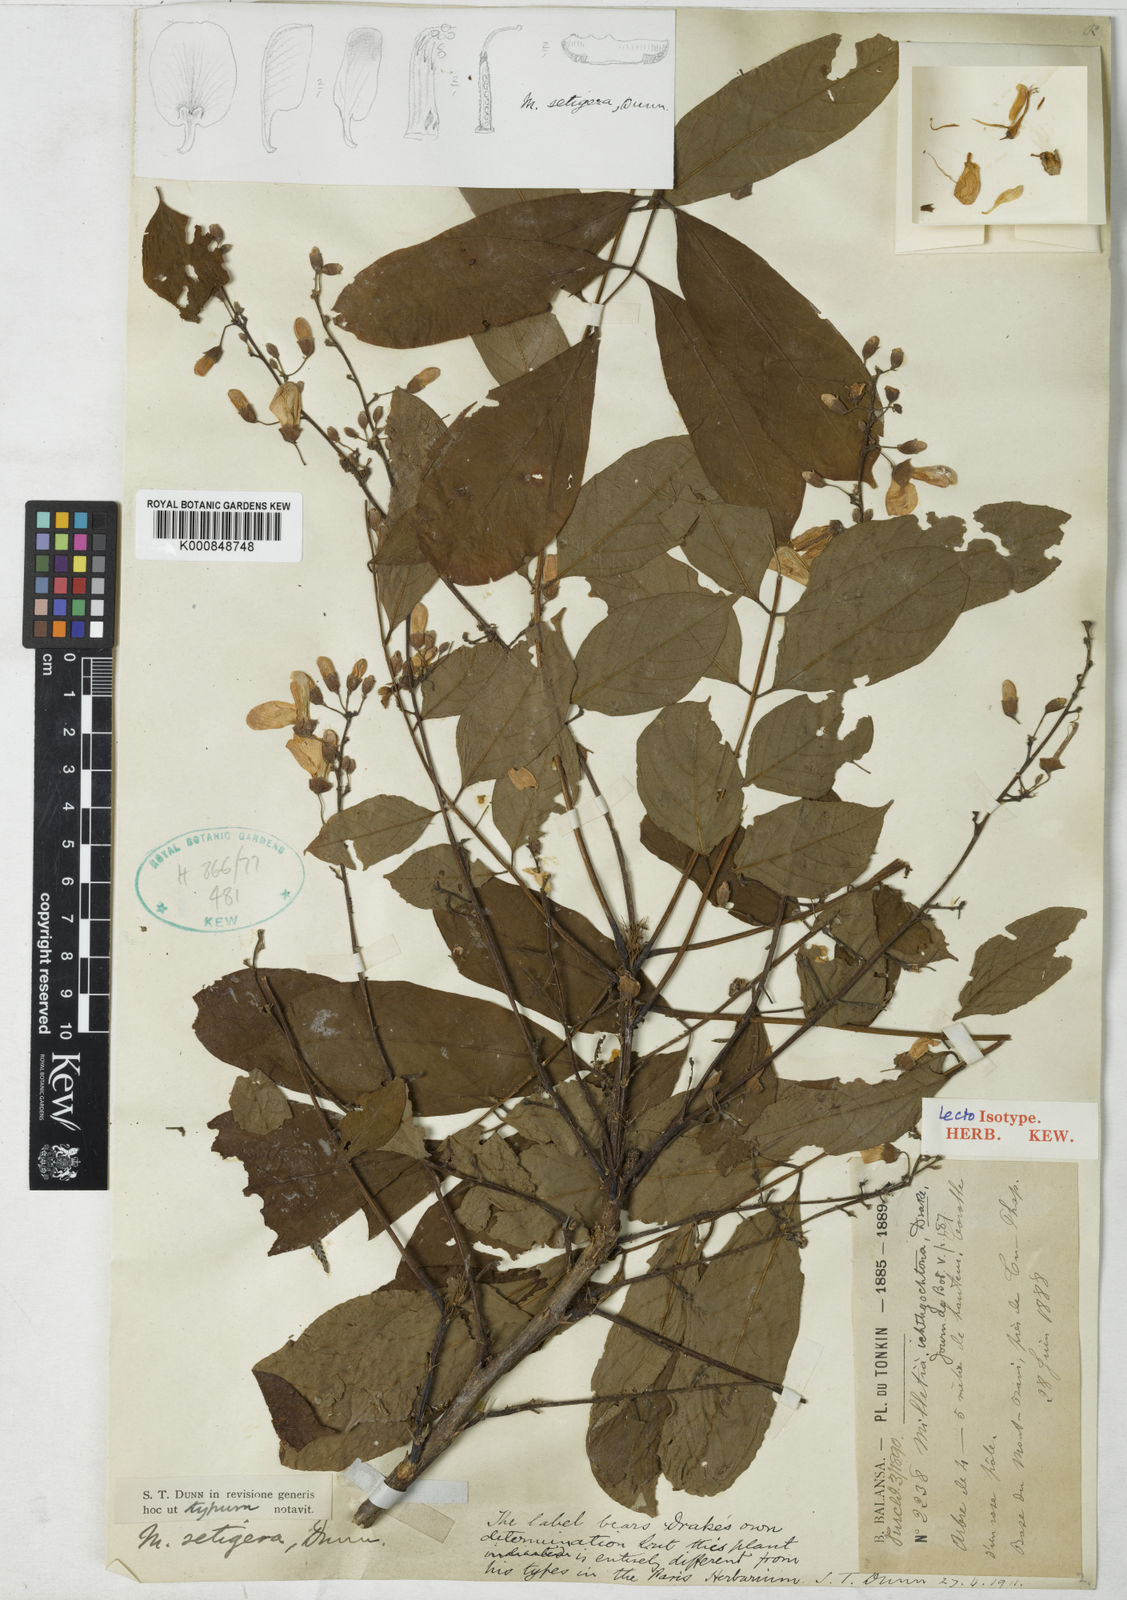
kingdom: Plantae
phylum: Tracheophyta
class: Magnoliopsida
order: Fabales
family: Fabaceae
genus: Millettia
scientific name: Millettia setigera
